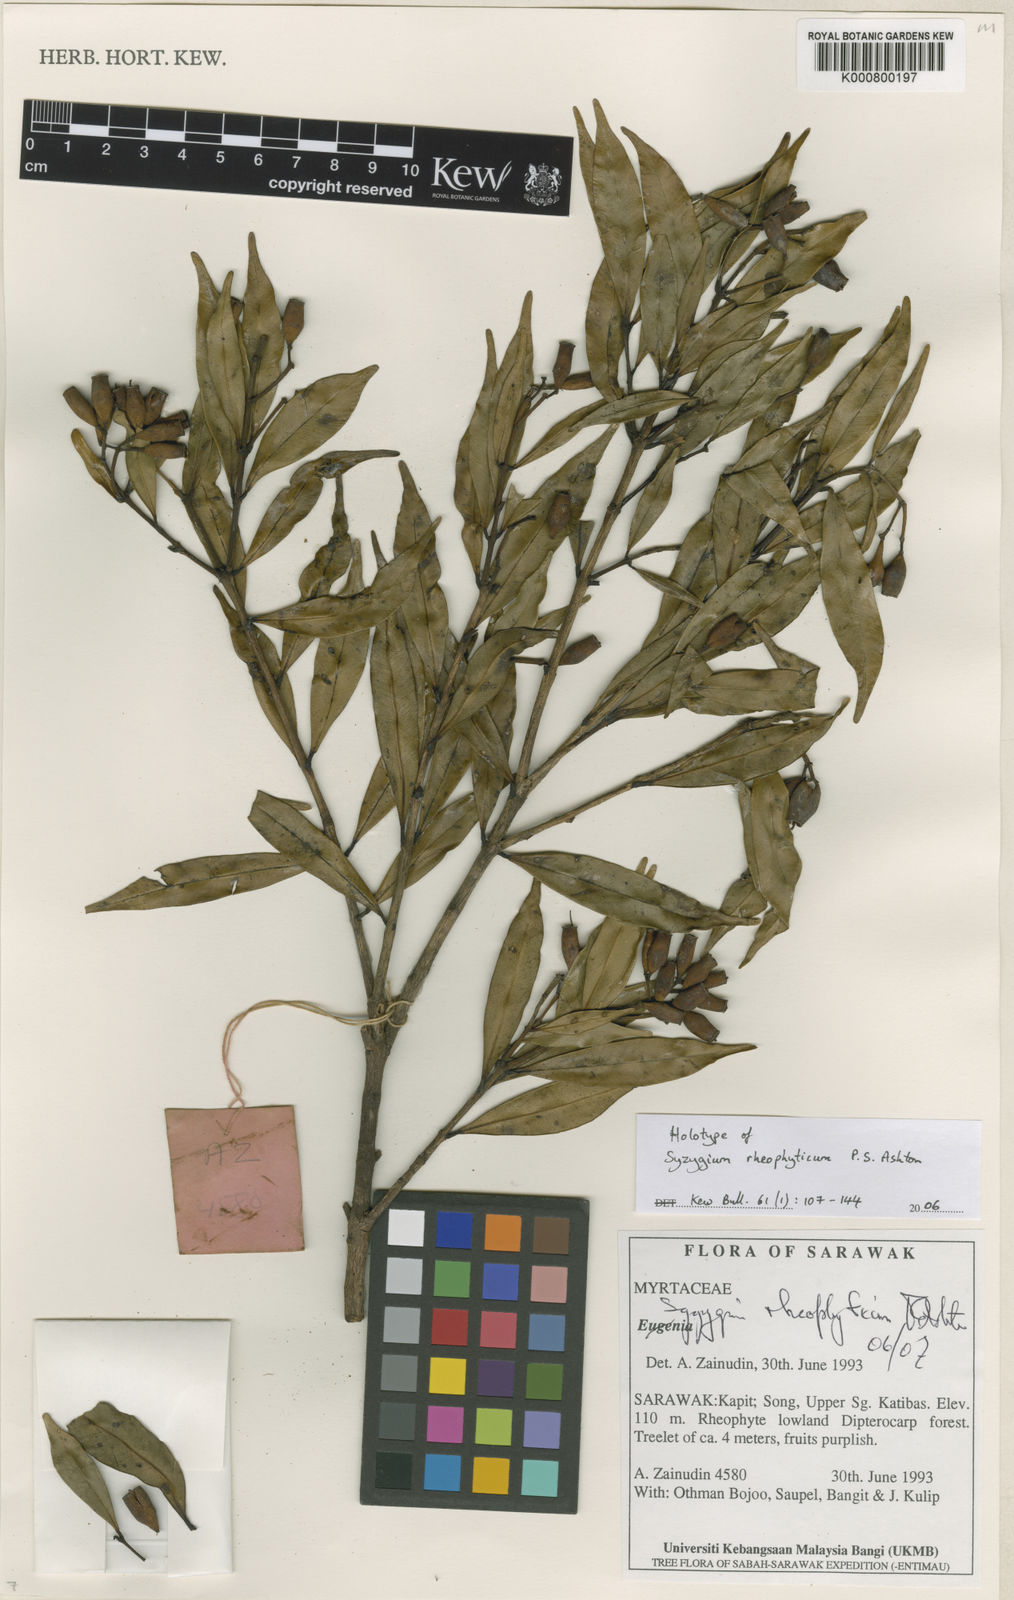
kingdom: Plantae
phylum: Tracheophyta
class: Magnoliopsida
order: Myrtales
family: Myrtaceae
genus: Syzygium
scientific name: Syzygium rheophyticum
